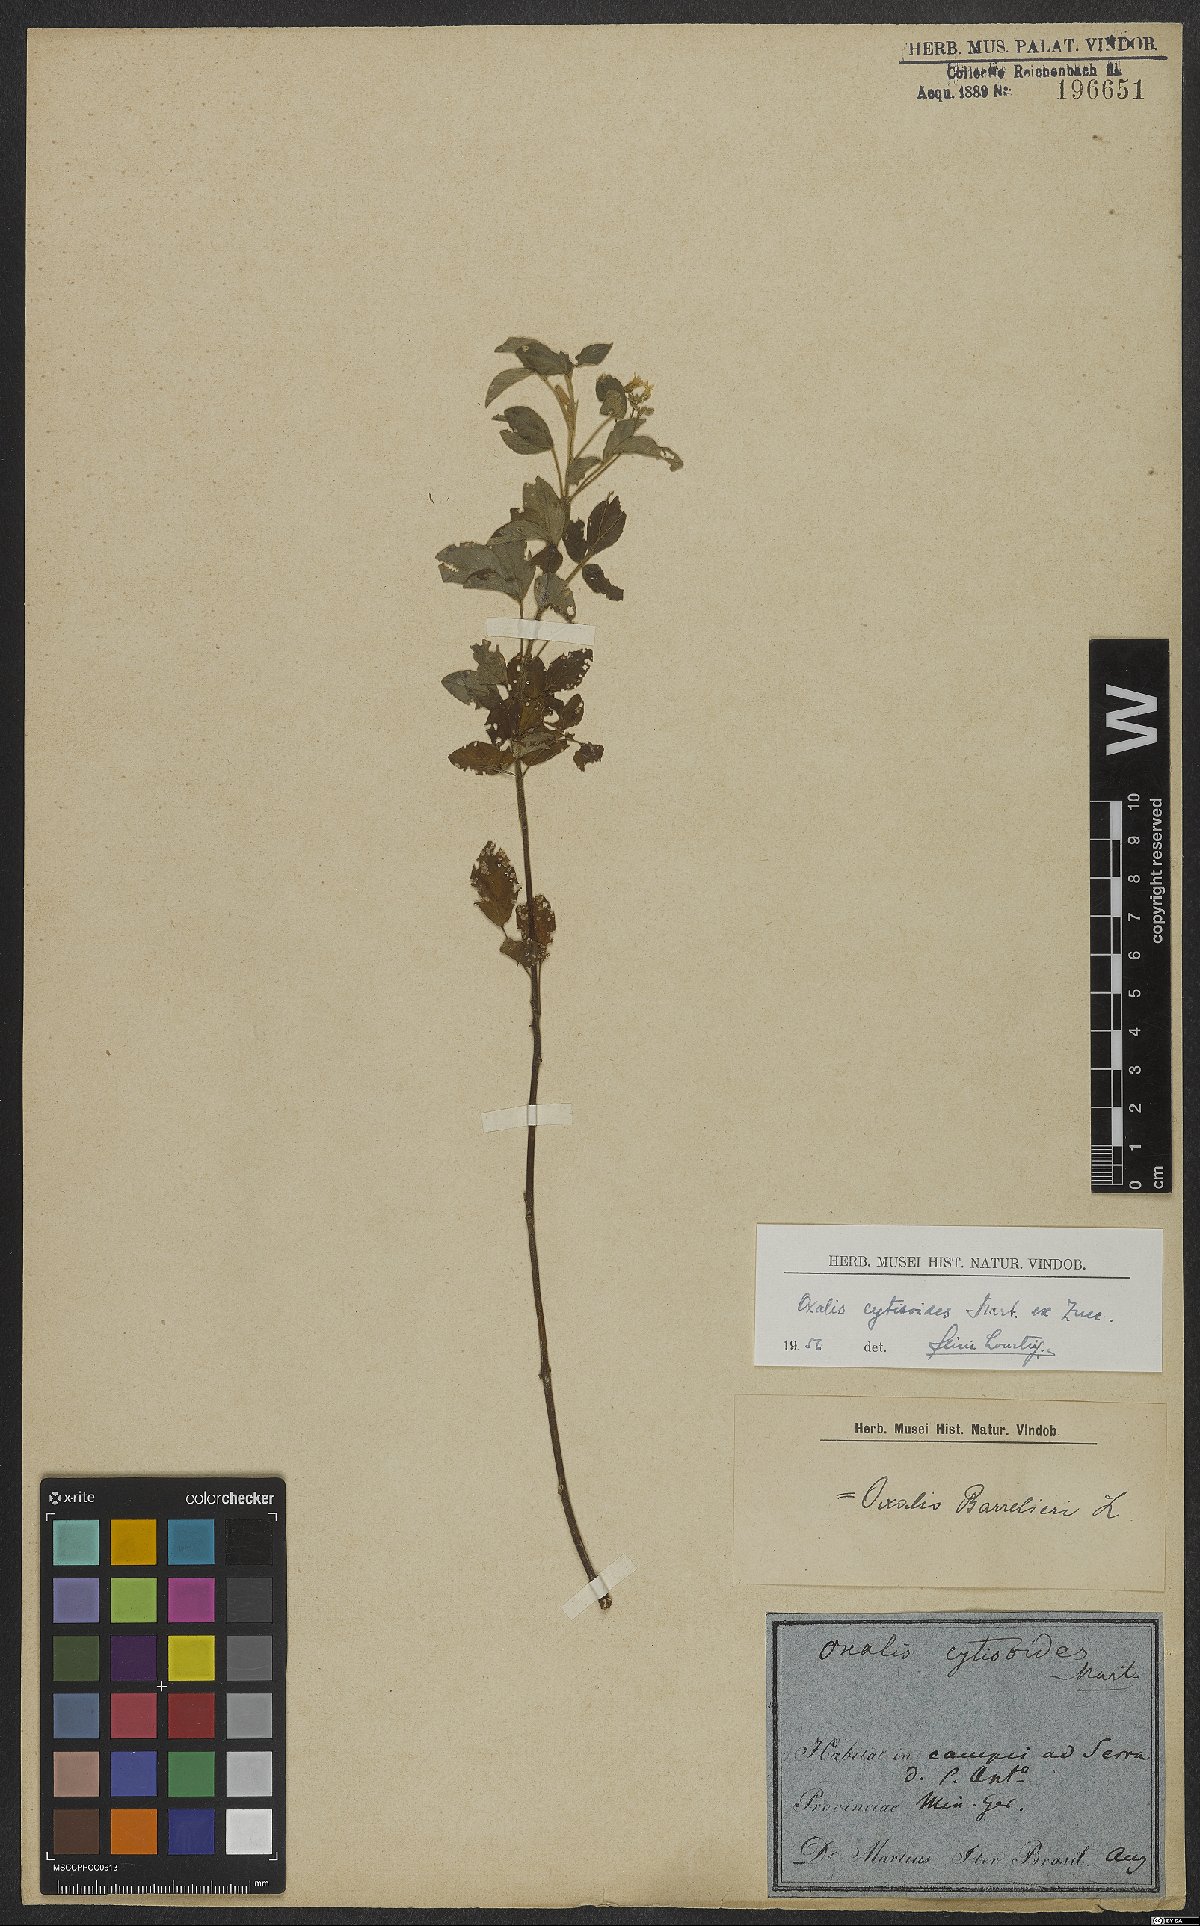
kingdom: Plantae
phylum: Tracheophyta
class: Magnoliopsida
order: Oxalidales
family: Oxalidaceae
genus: Oxalis
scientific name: Oxalis cytisoides
